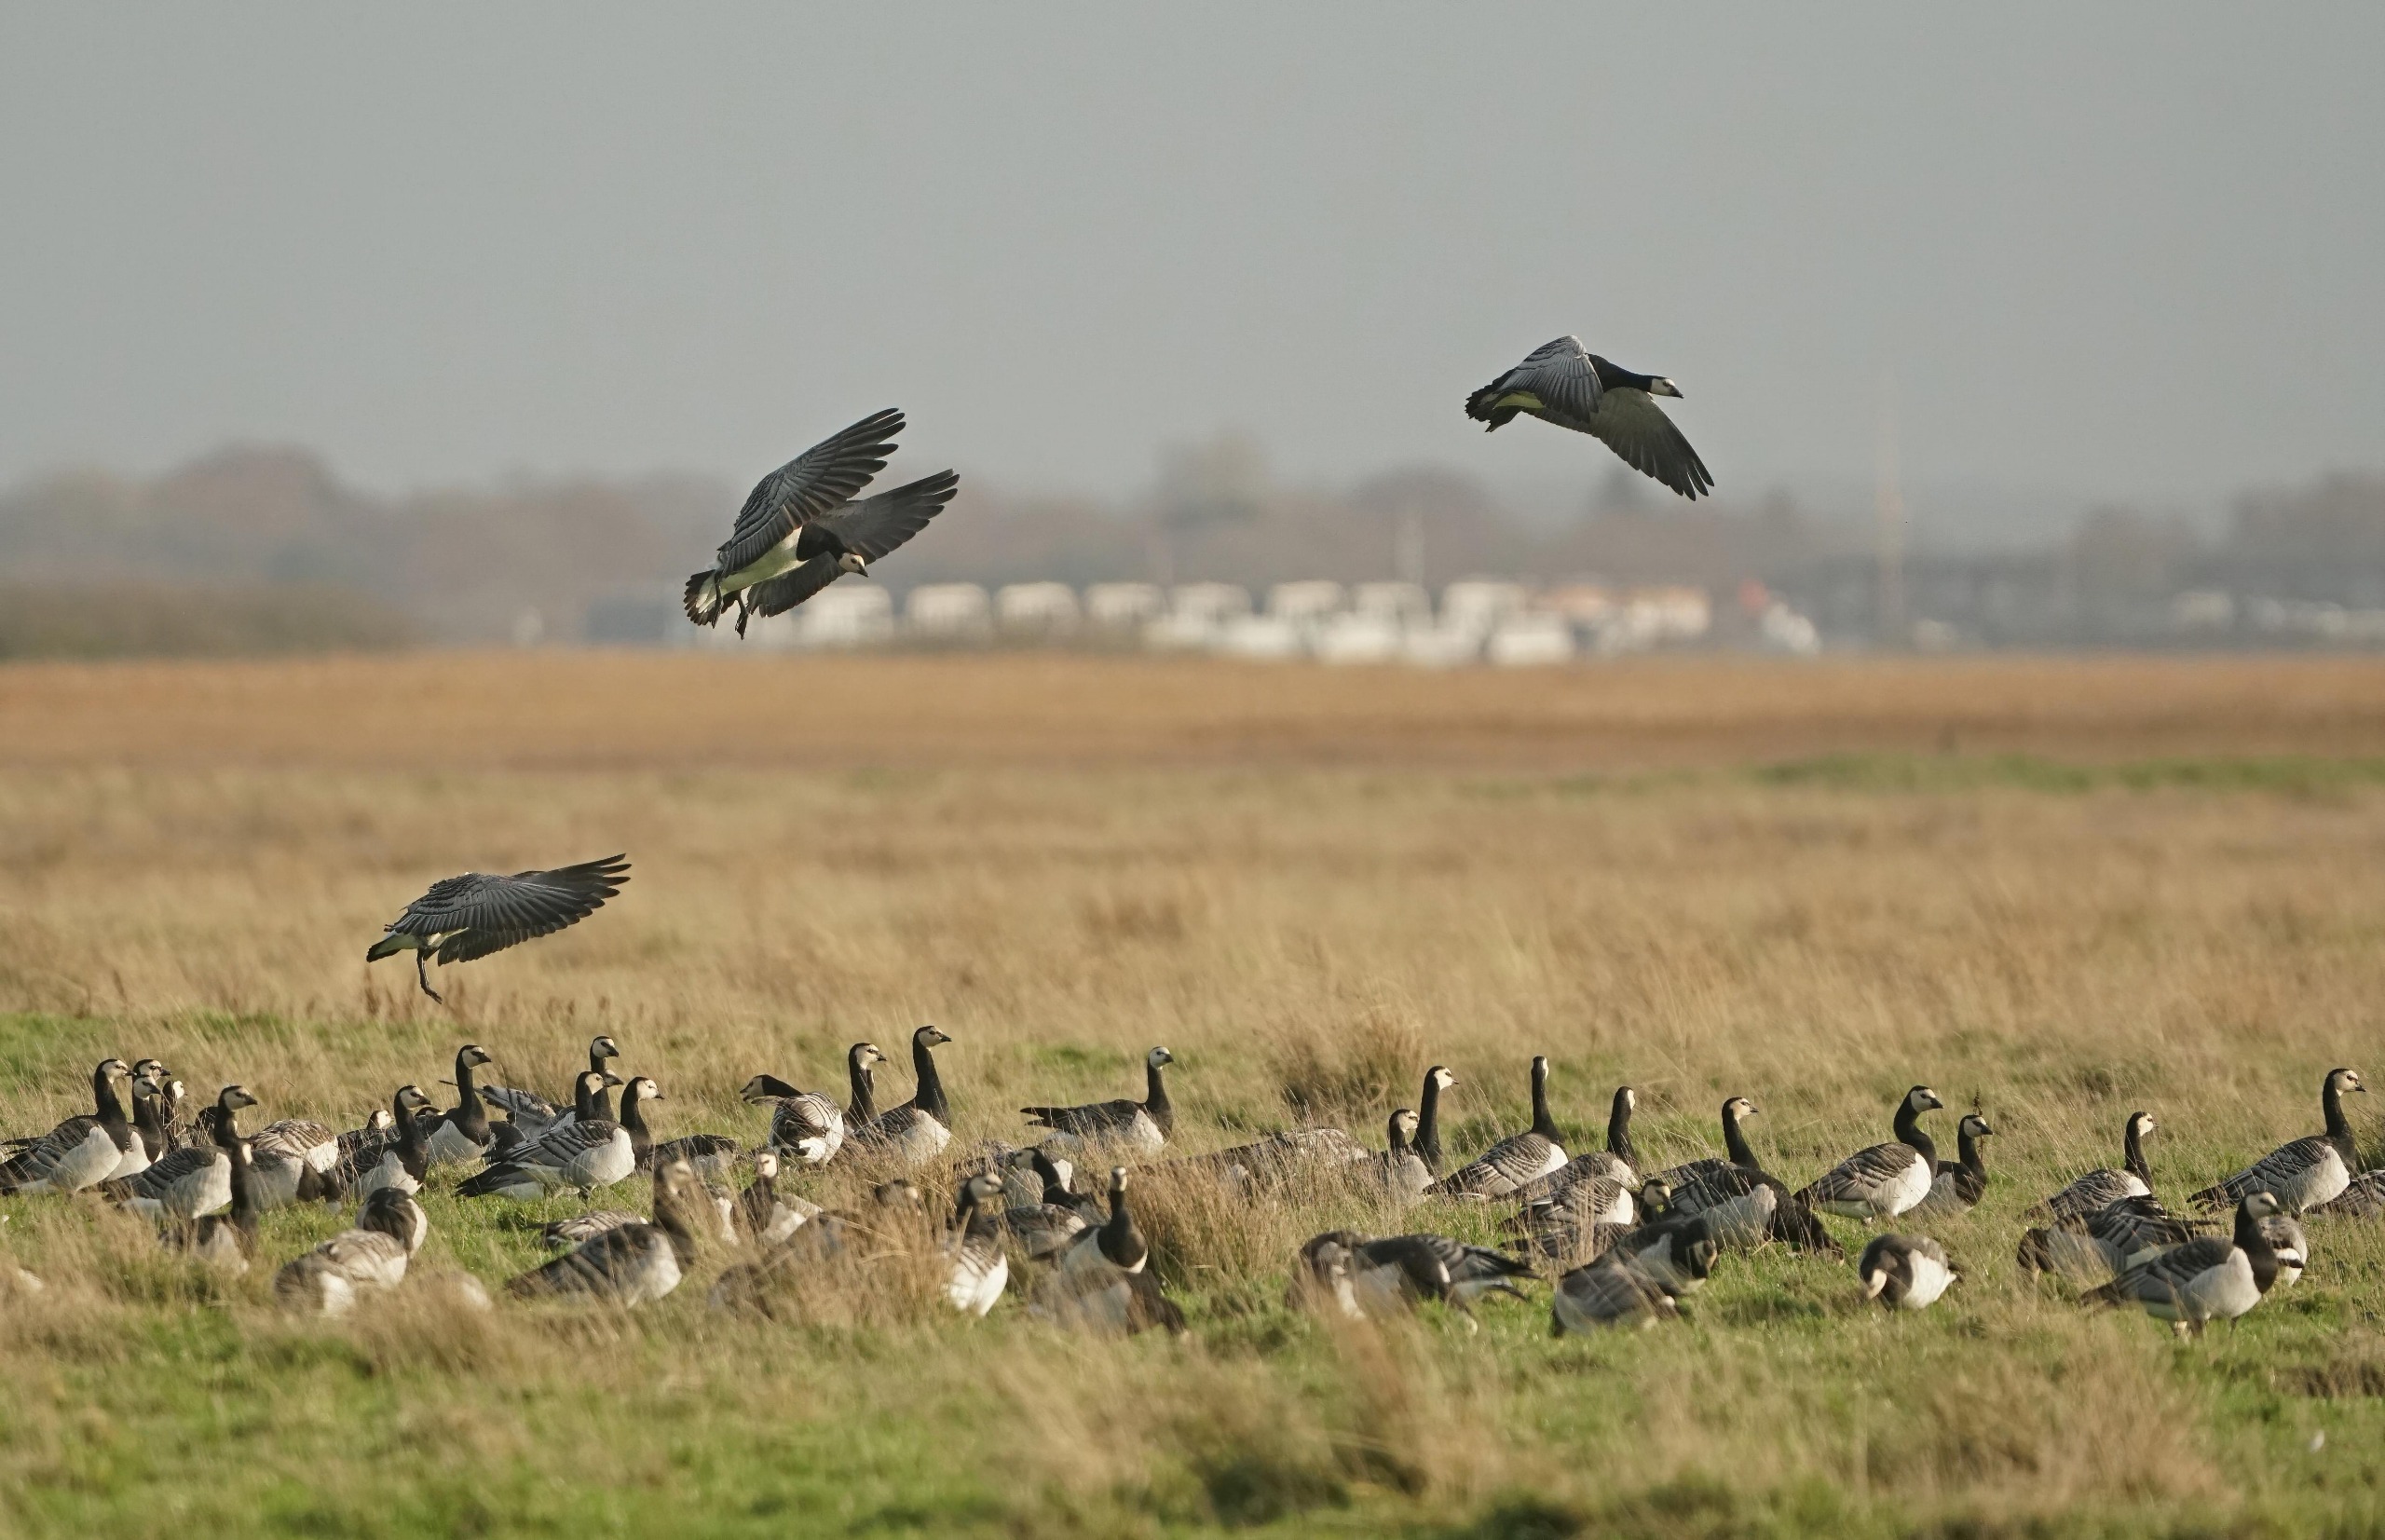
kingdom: Animalia
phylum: Chordata
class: Aves
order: Anseriformes
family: Anatidae
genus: Branta
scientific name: Branta leucopsis
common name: Bramgås
